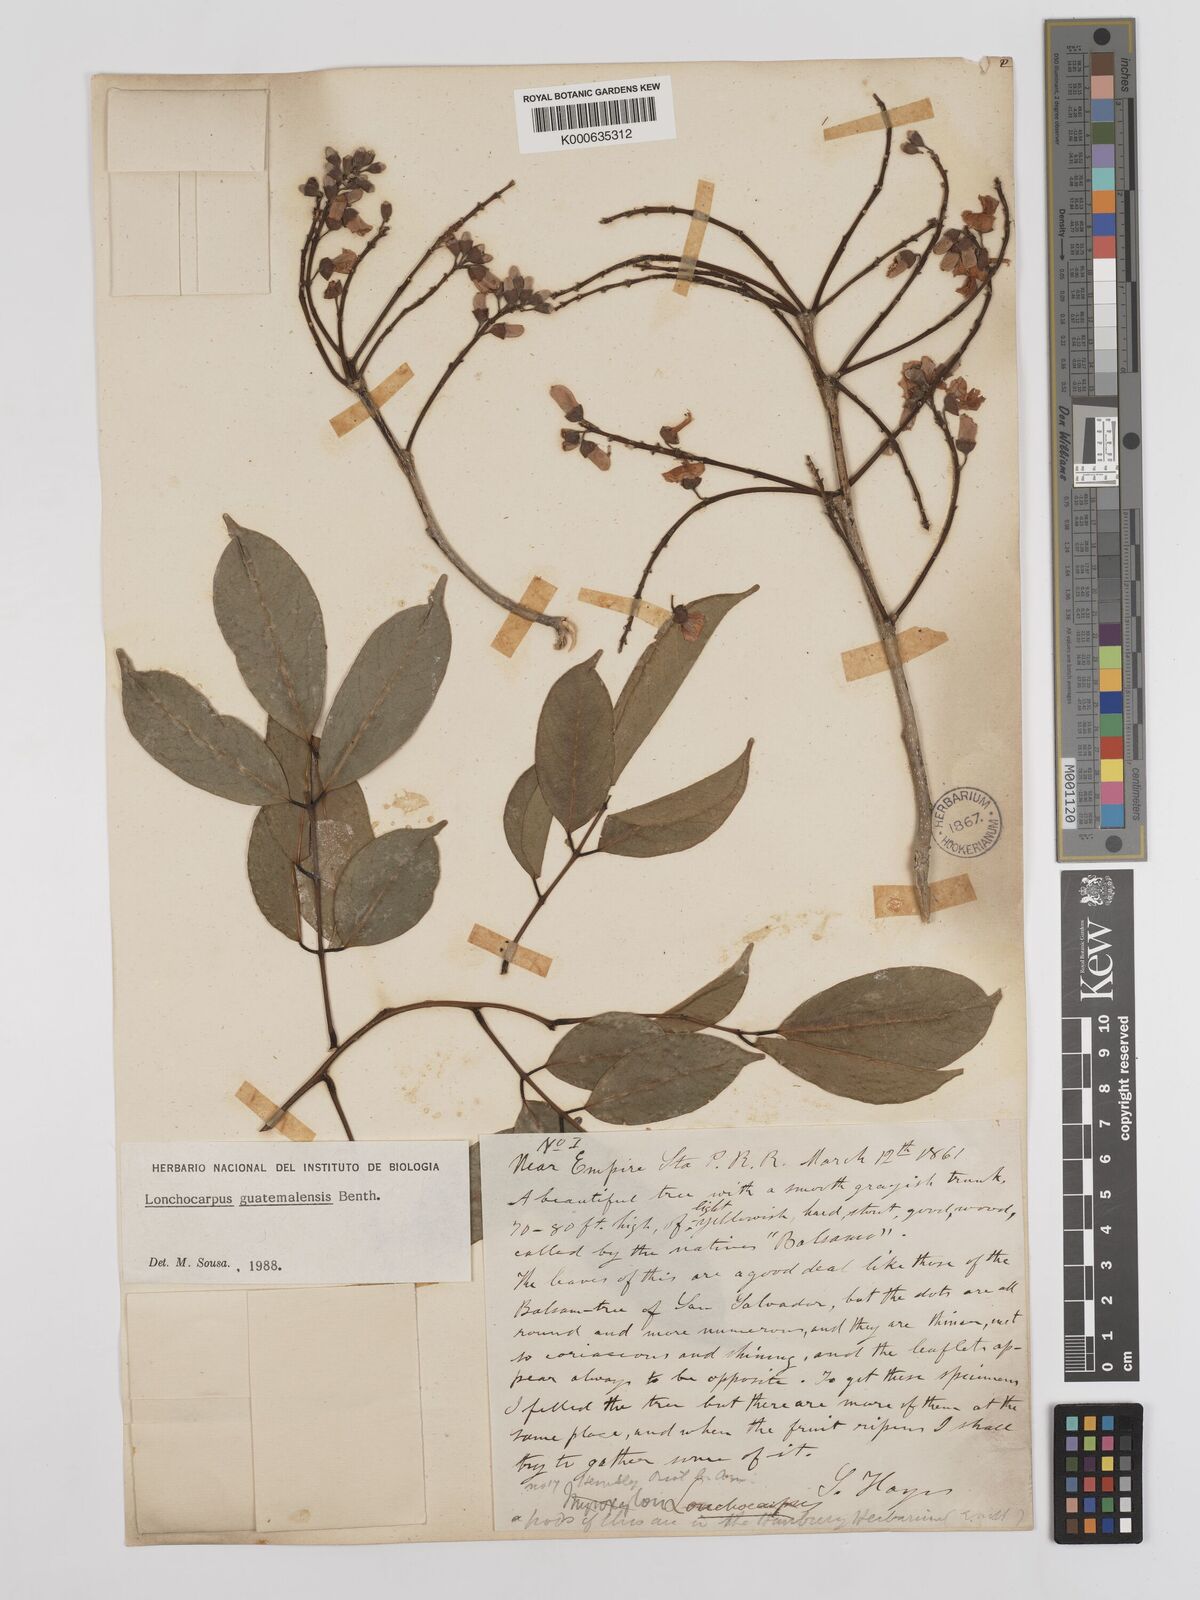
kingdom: Plantae
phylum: Tracheophyta
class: Magnoliopsida
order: Fabales
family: Fabaceae
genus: Lonchocarpus
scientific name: Lonchocarpus guatemalensis
